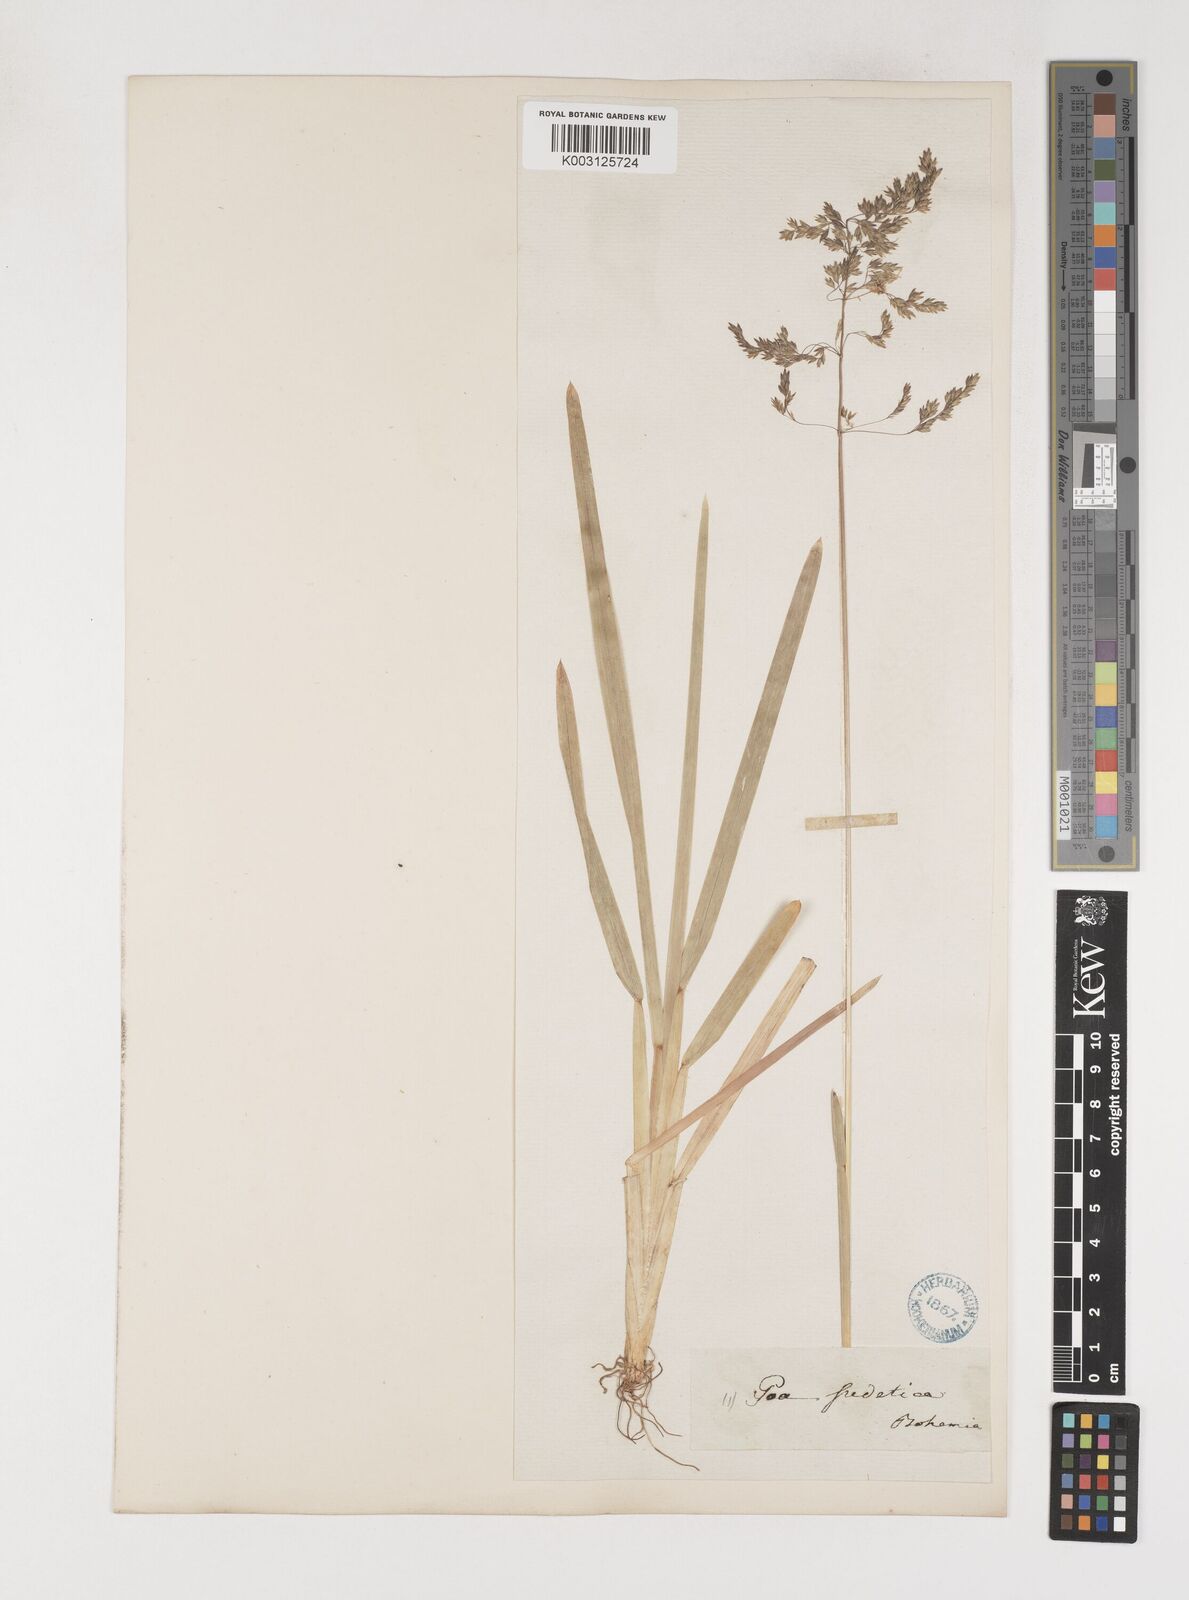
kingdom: Plantae
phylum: Tracheophyta
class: Liliopsida
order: Poales
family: Poaceae
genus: Poa
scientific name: Poa chaixii
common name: Broad-leaved meadow-grass
